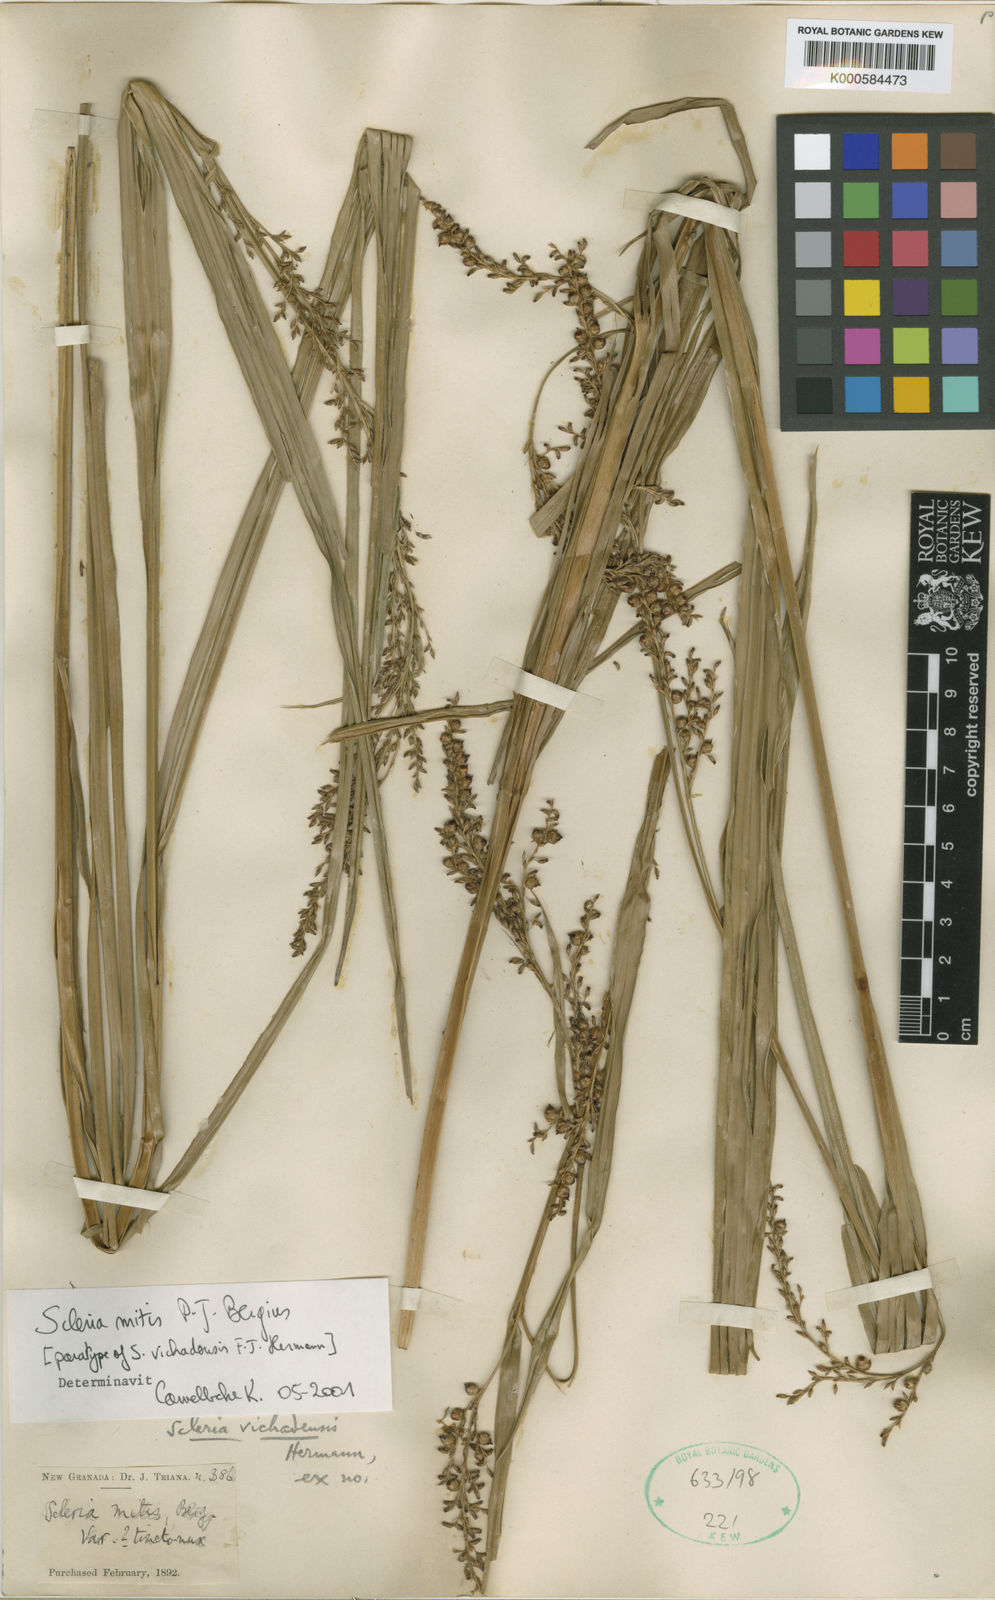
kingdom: Plantae
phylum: Tracheophyta
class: Liliopsida
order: Poales
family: Cyperaceae
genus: Scleria
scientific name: Scleria mitis
